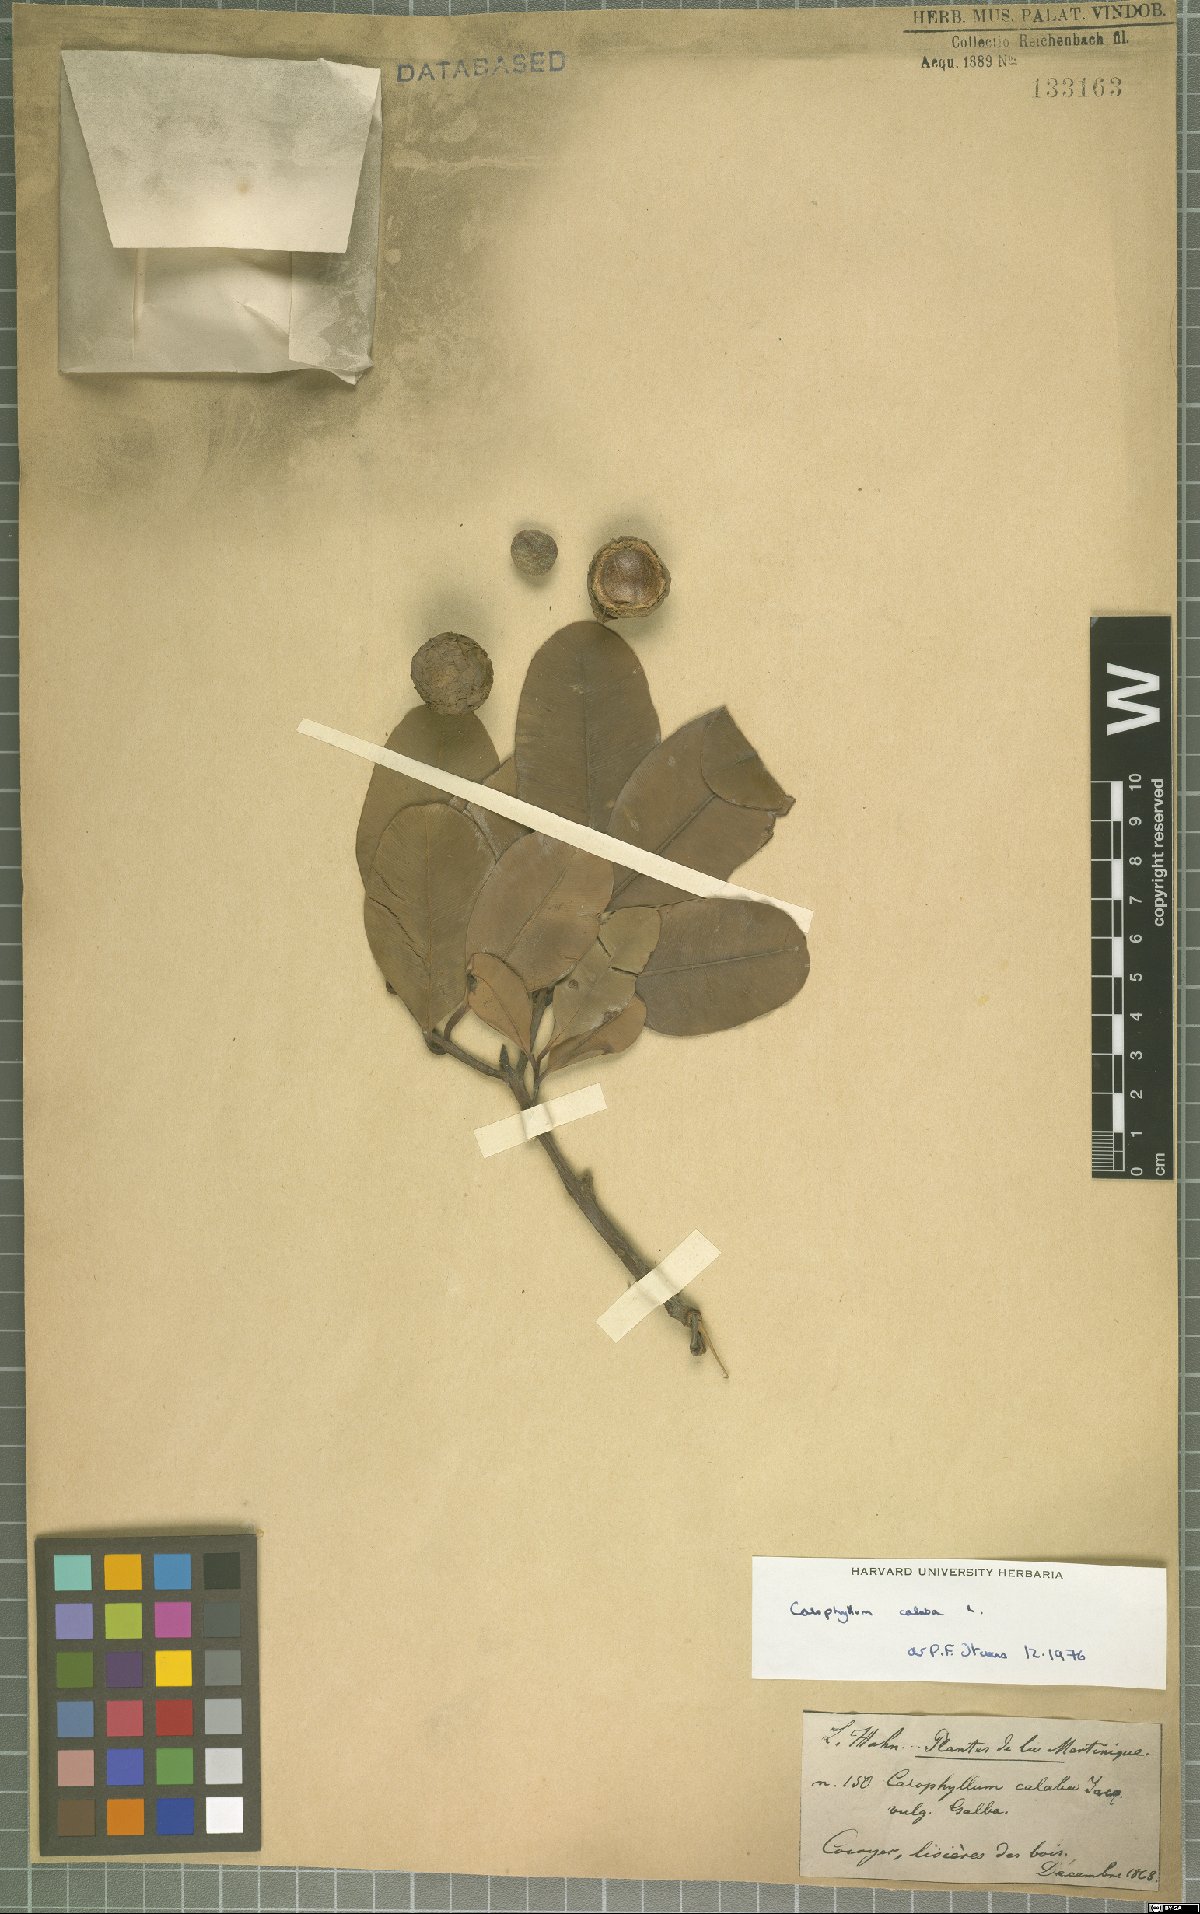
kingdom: Plantae
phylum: Tracheophyta
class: Magnoliopsida
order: Malpighiales
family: Calophyllaceae
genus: Calophyllum
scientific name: Calophyllum calaba
